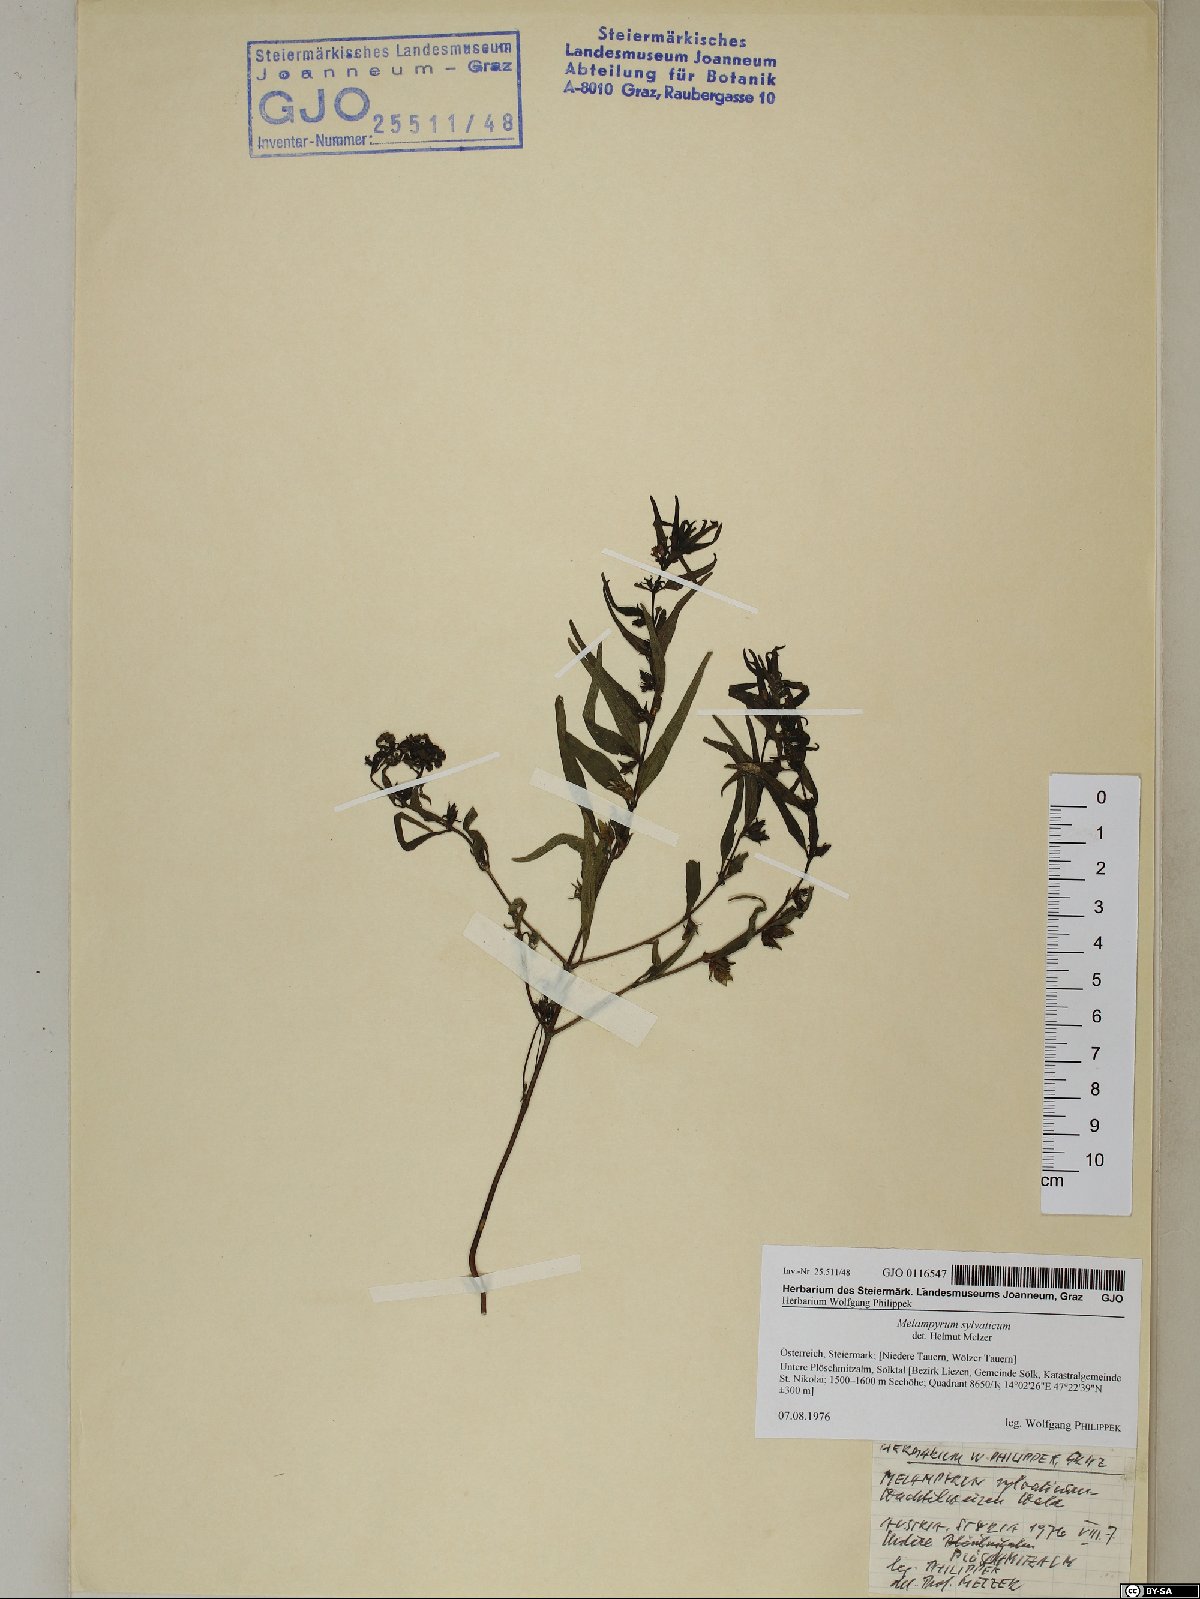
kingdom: Plantae
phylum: Tracheophyta
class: Magnoliopsida
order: Lamiales
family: Orobanchaceae
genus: Melampyrum
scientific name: Melampyrum sylvaticum
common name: Small cow-wheat
